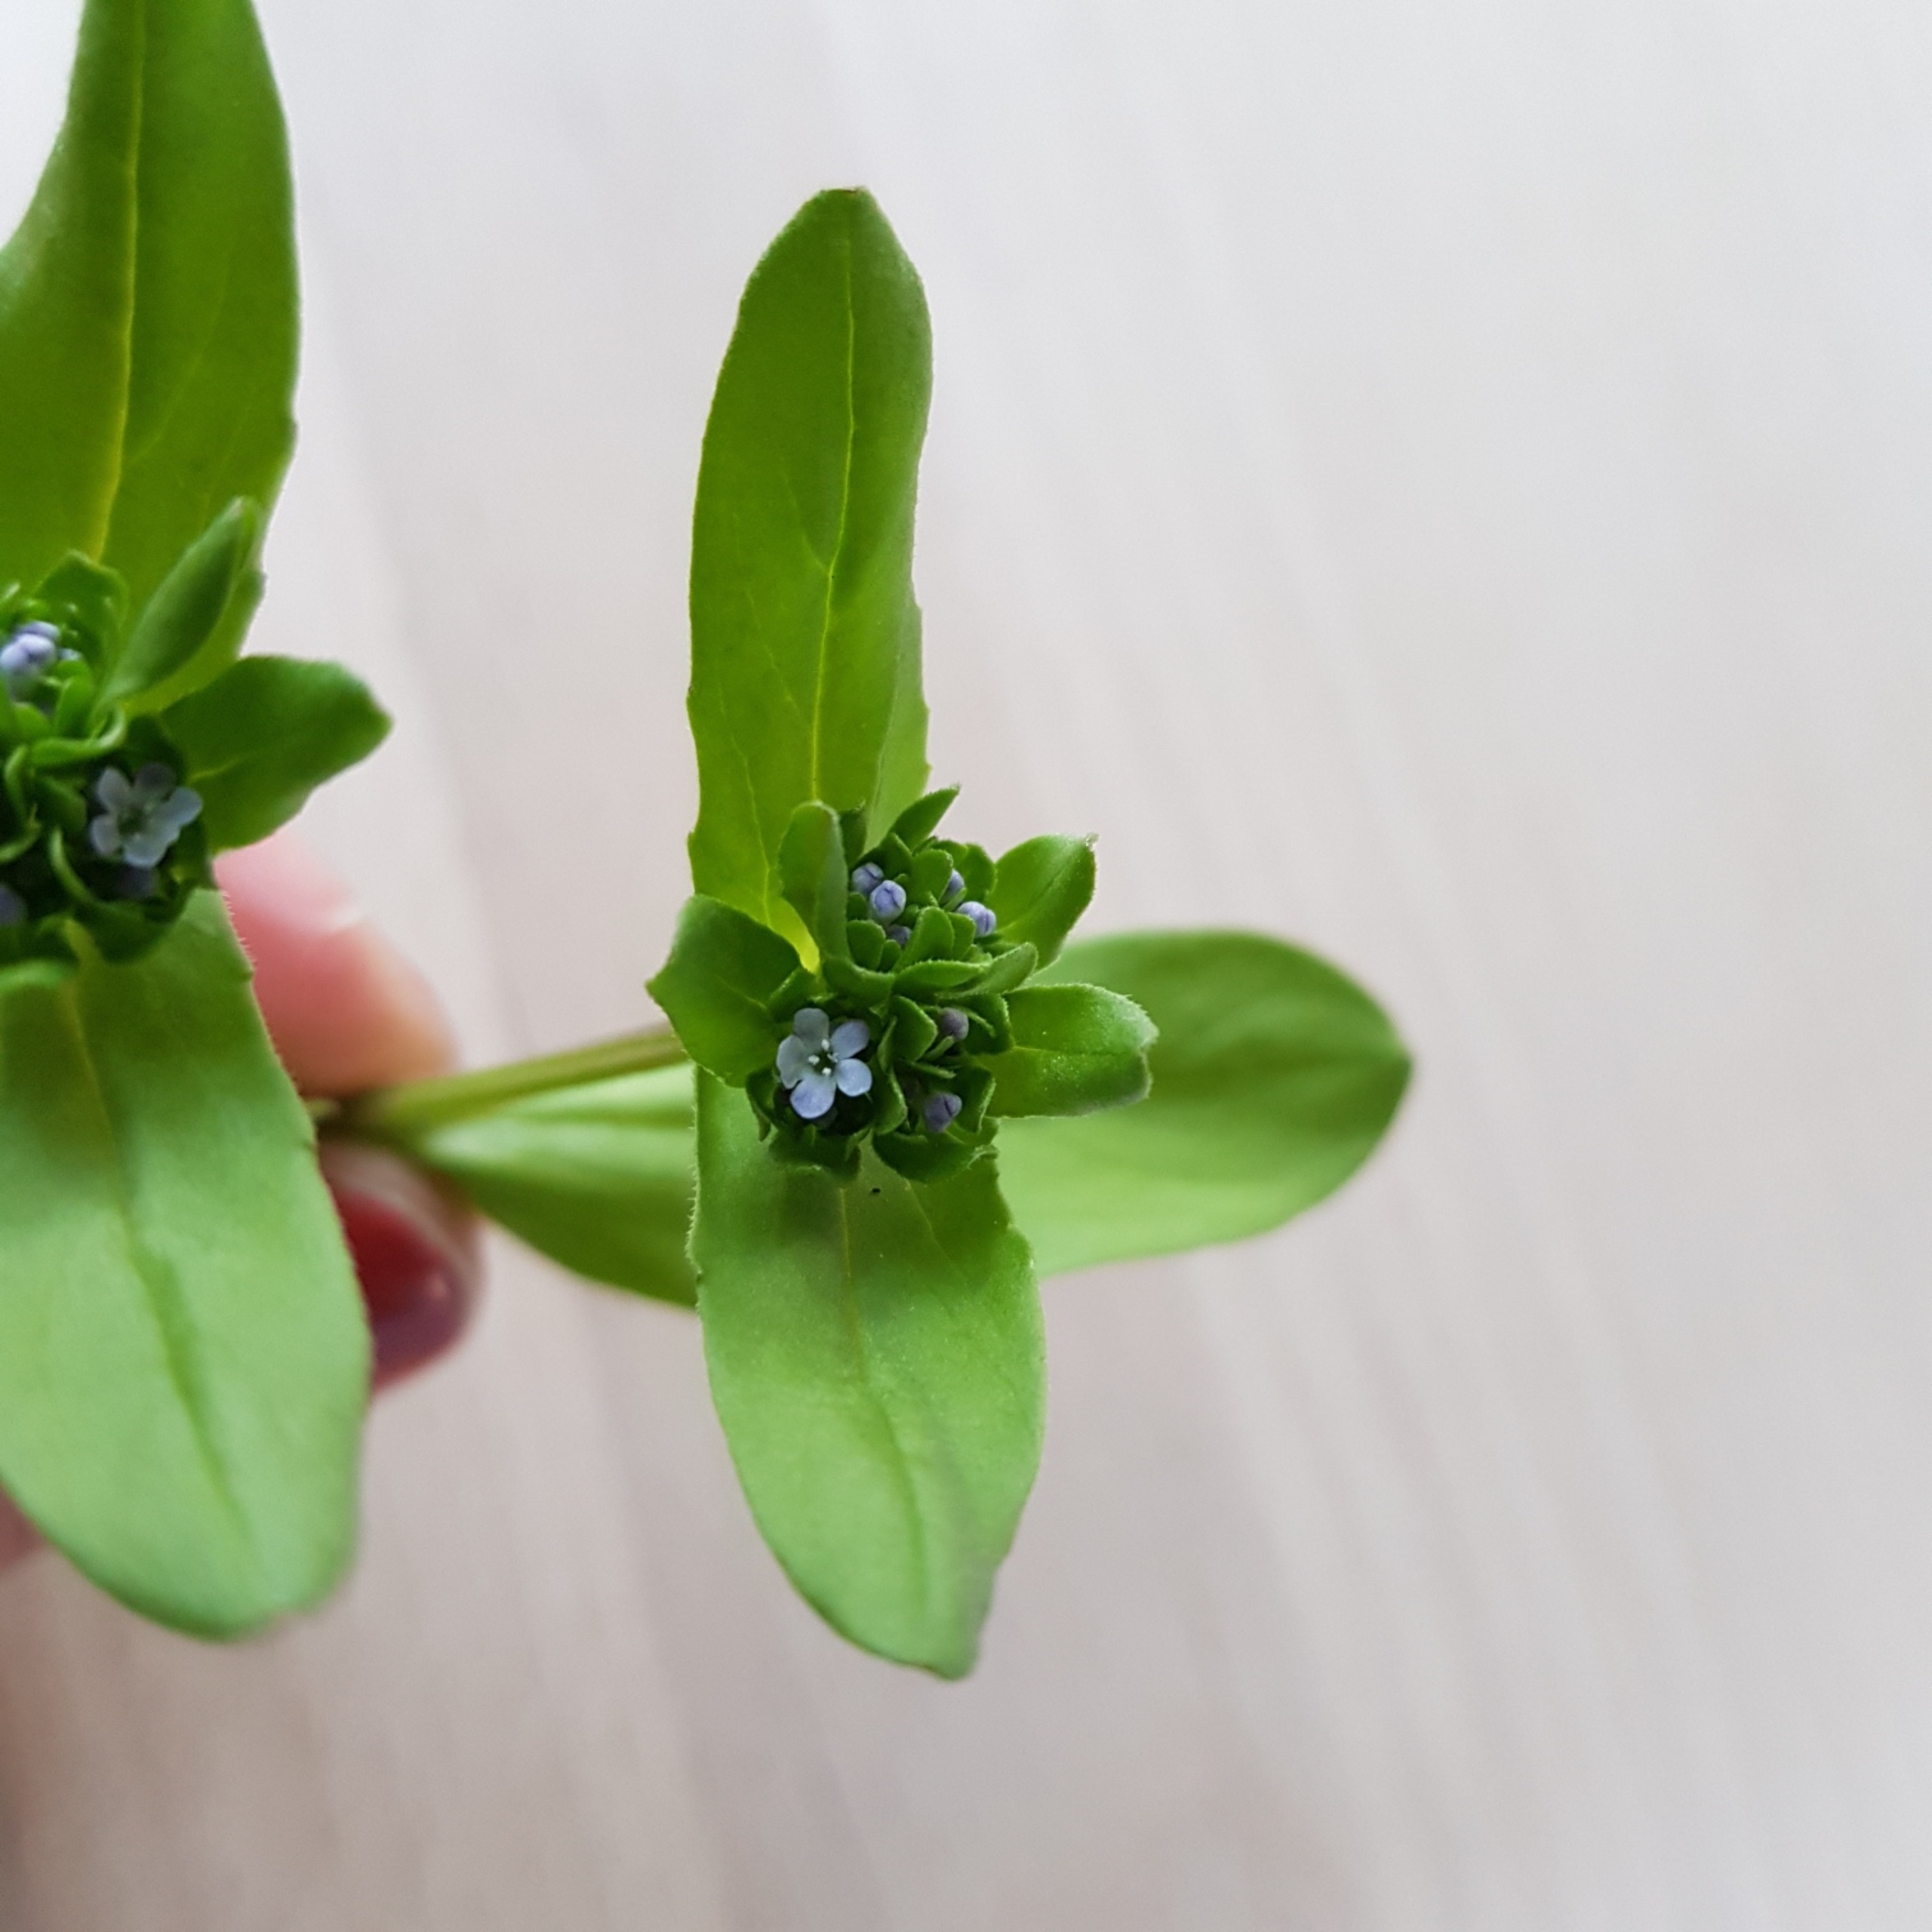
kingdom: Plantae
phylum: Tracheophyta
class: Magnoliopsida
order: Dipsacales
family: Caprifoliaceae
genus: Valerianella
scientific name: Valerianella locusta
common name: Tandfri vårsalat
